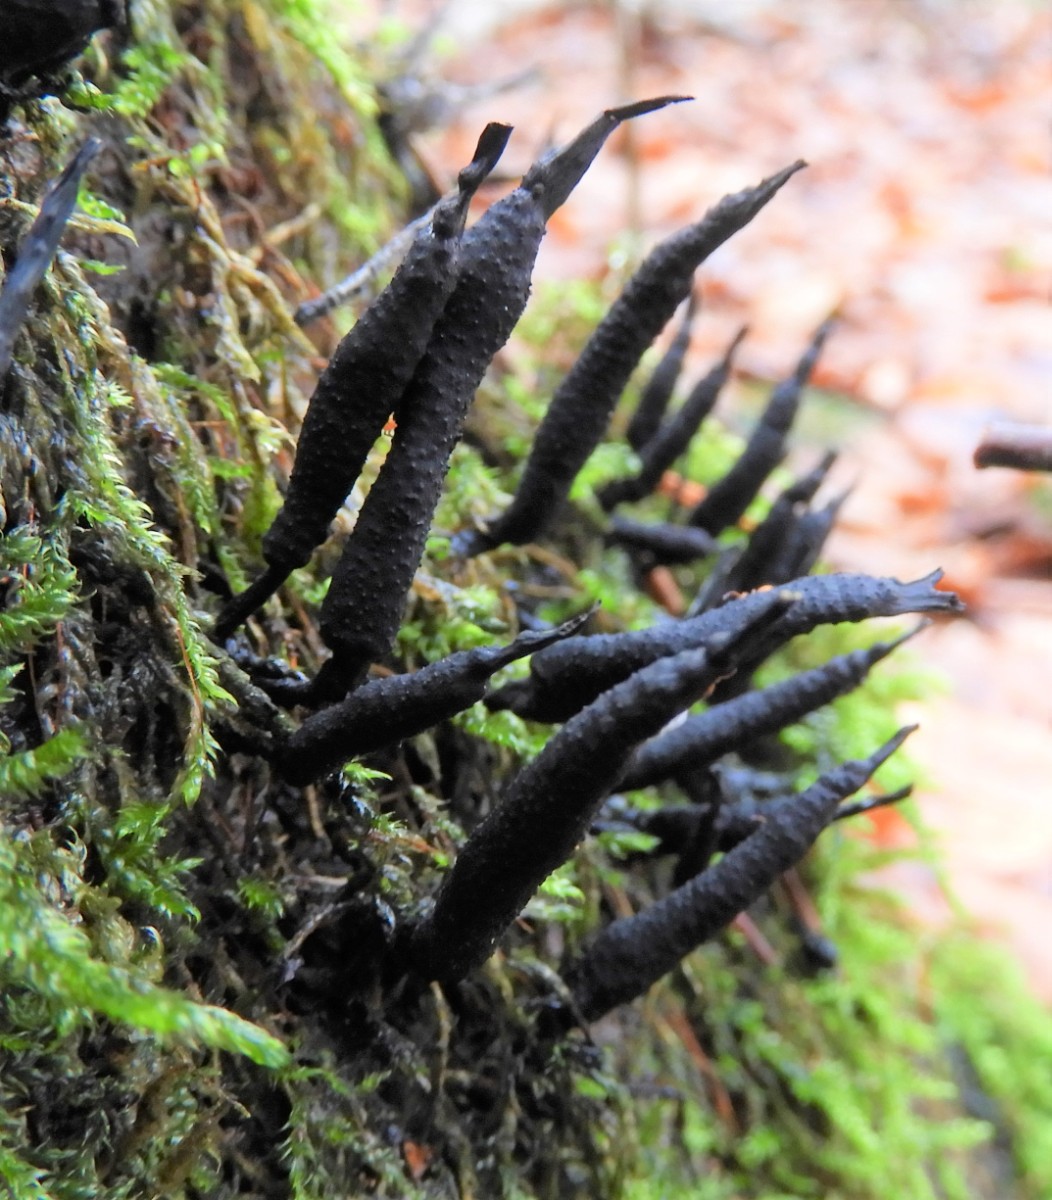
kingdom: Fungi
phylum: Ascomycota
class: Sordariomycetes
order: Xylariales
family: Xylariaceae
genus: Xylaria
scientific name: Xylaria hypoxylon
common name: grenet stødsvamp
